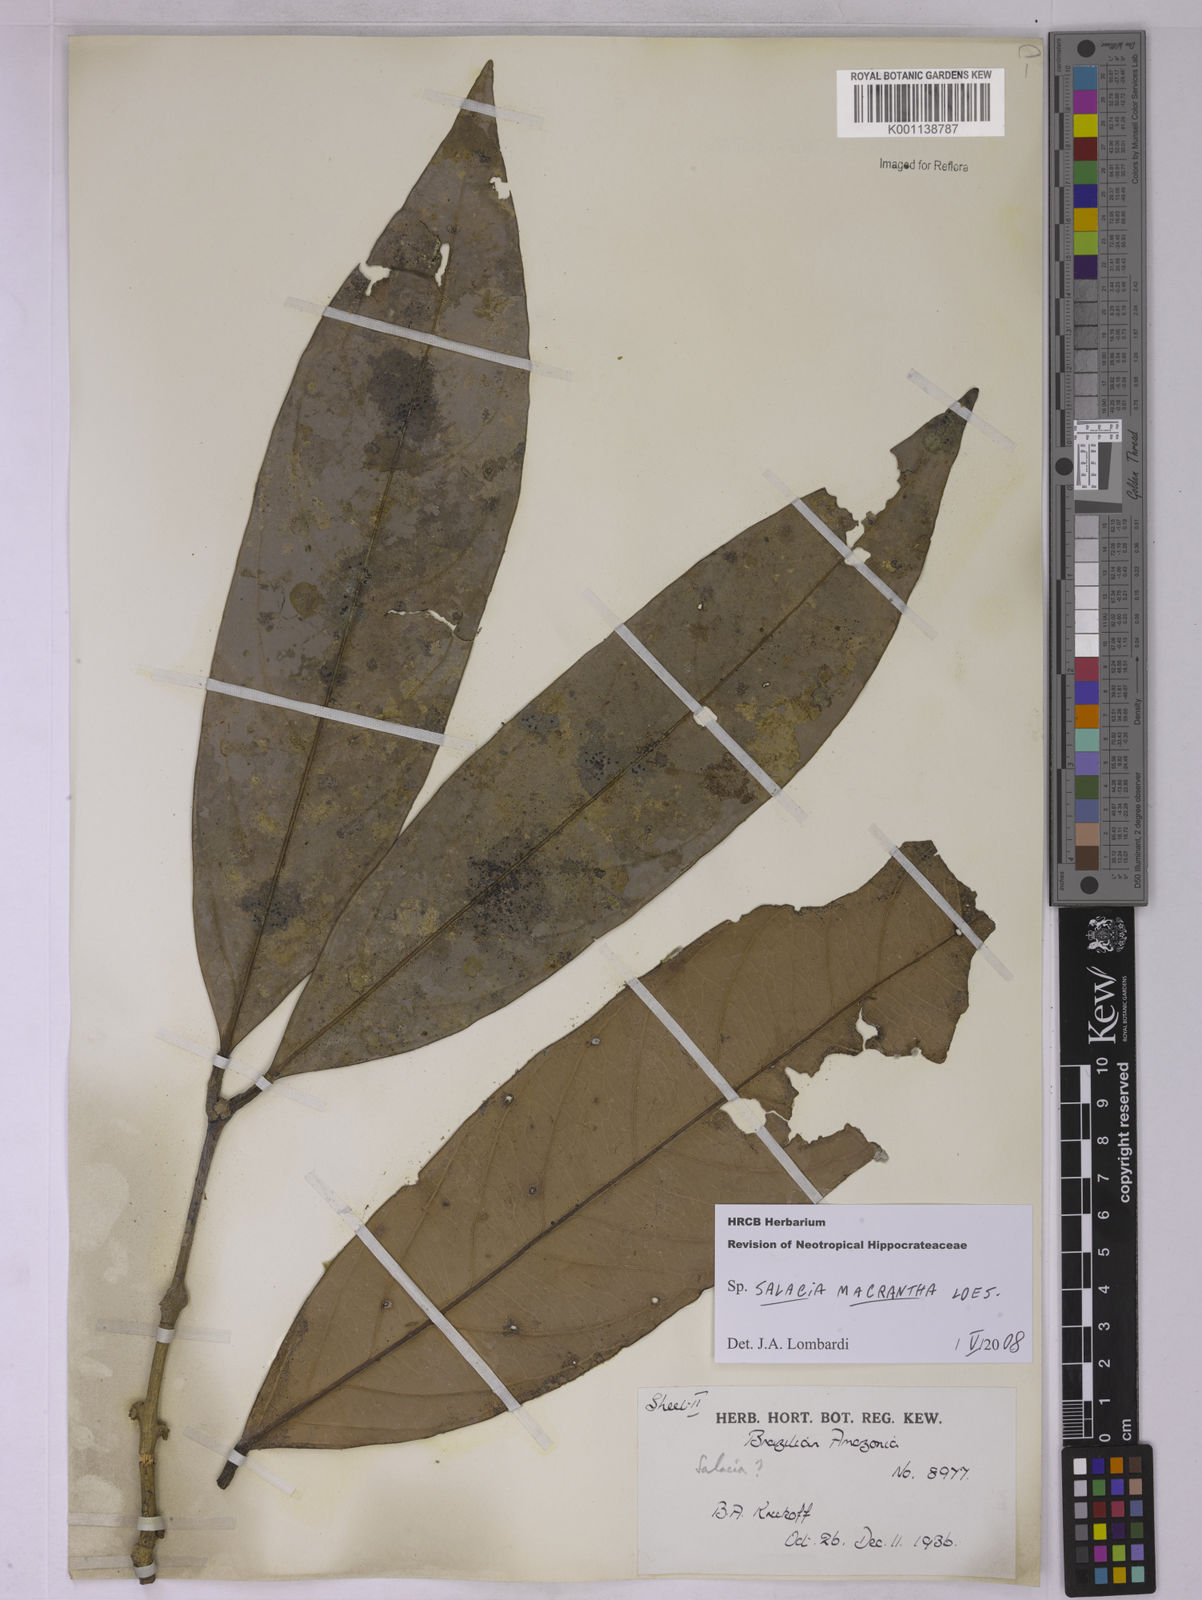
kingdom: Plantae
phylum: Tracheophyta
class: Magnoliopsida
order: Celastrales
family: Celastraceae
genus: Salacia
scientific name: Salacia macrantha
